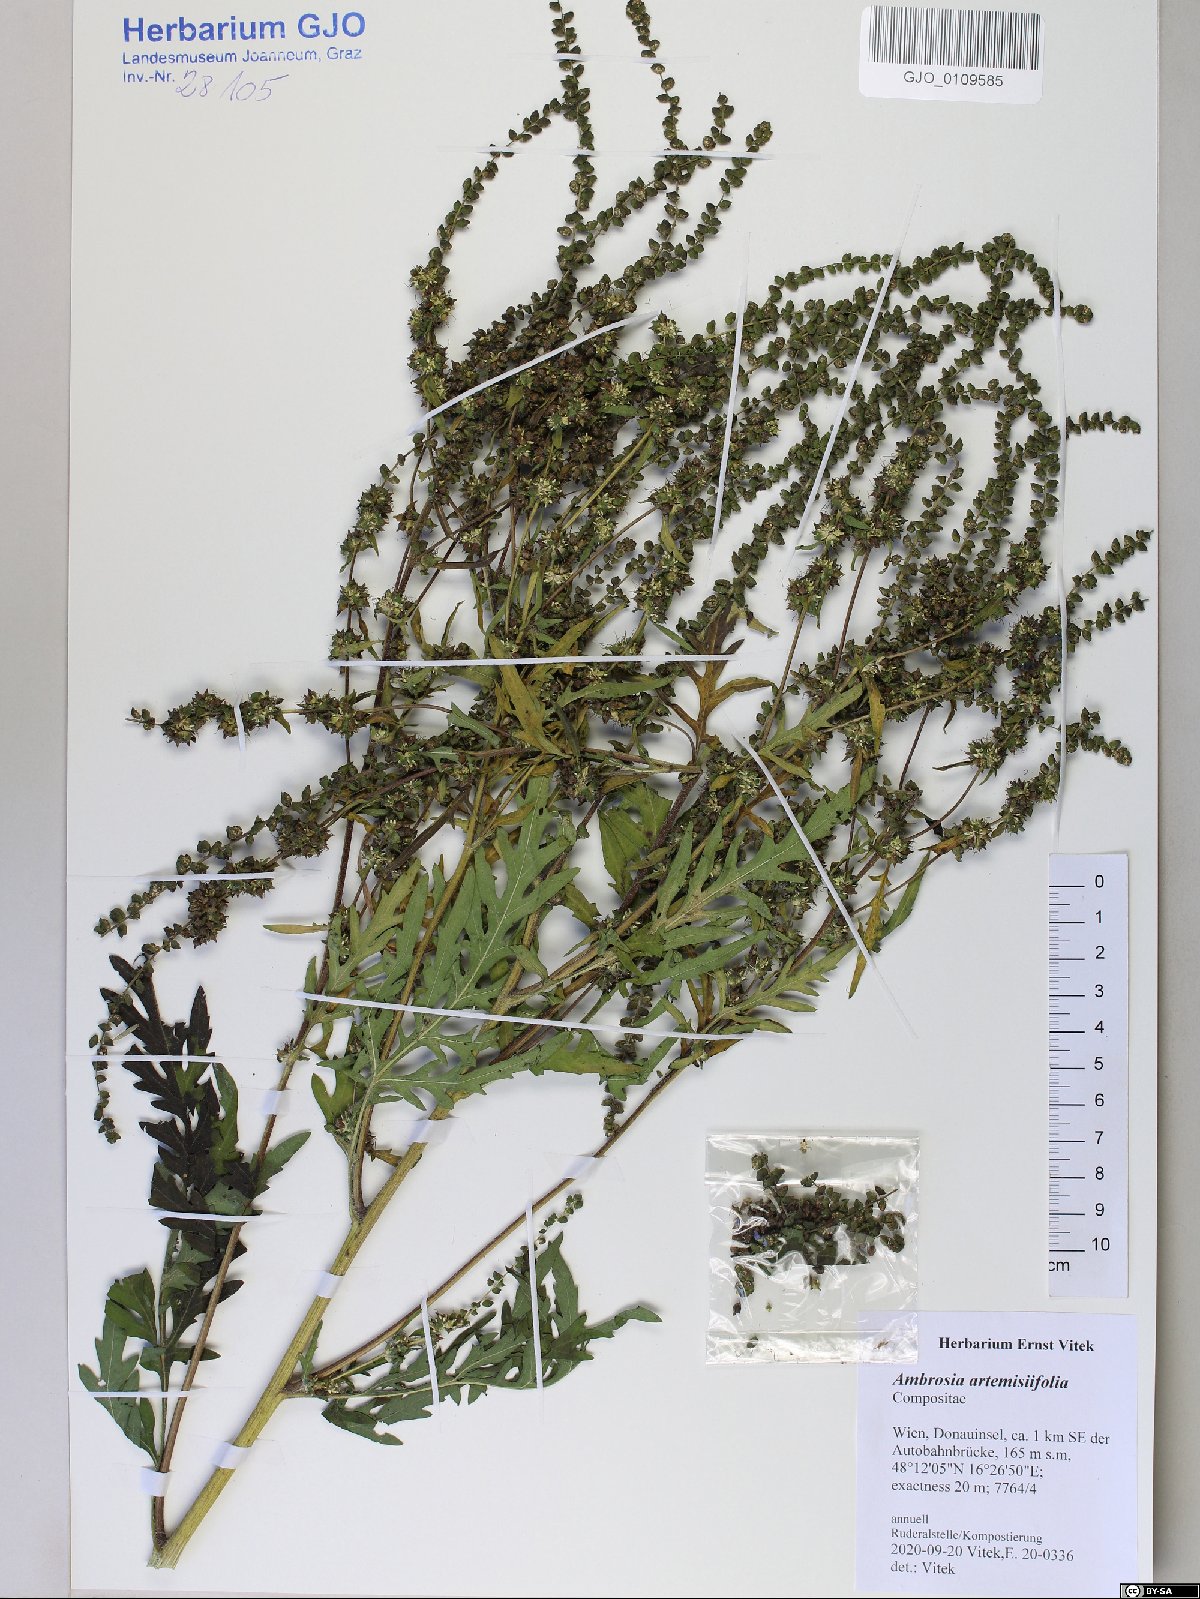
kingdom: Plantae
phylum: Tracheophyta
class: Magnoliopsida
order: Asterales
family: Asteraceae
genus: Ambrosia
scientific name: Ambrosia artemisiifolia
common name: Annual ragweed
